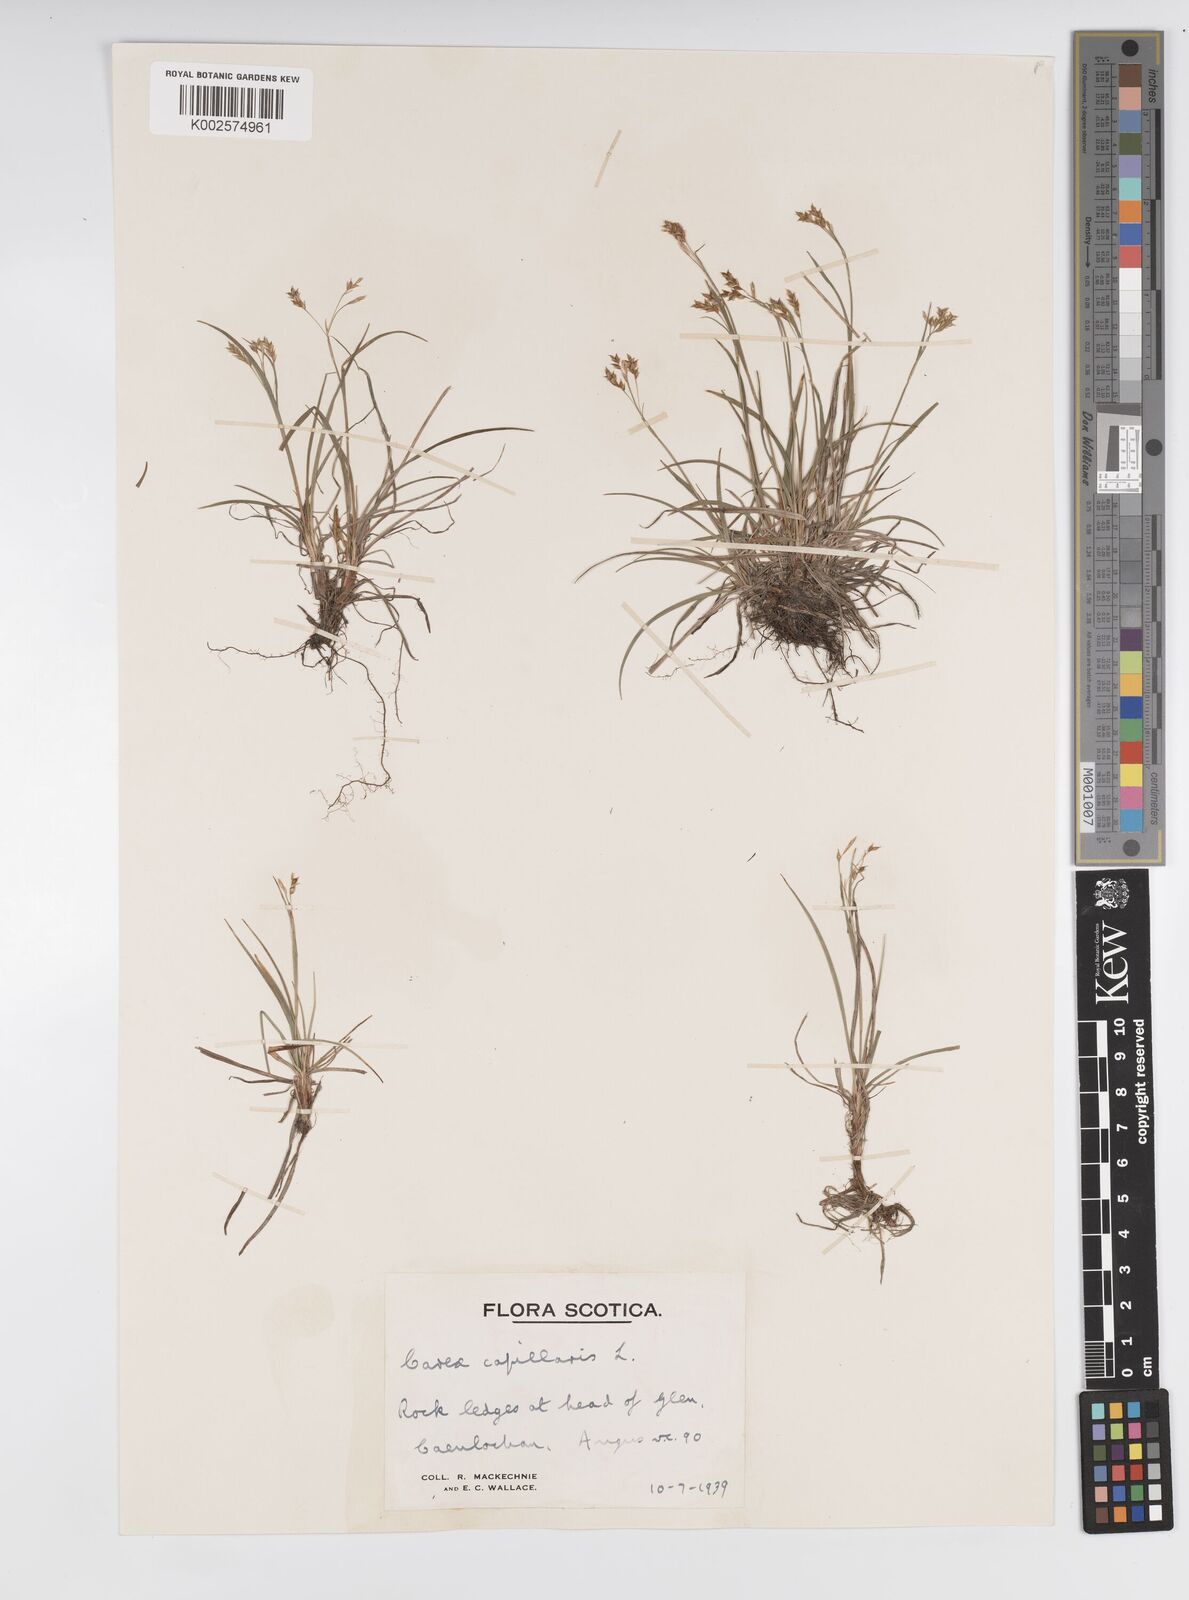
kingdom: Plantae
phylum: Tracheophyta
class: Liliopsida
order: Poales
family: Cyperaceae
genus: Carex
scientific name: Carex capillaris
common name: Hair sedge
